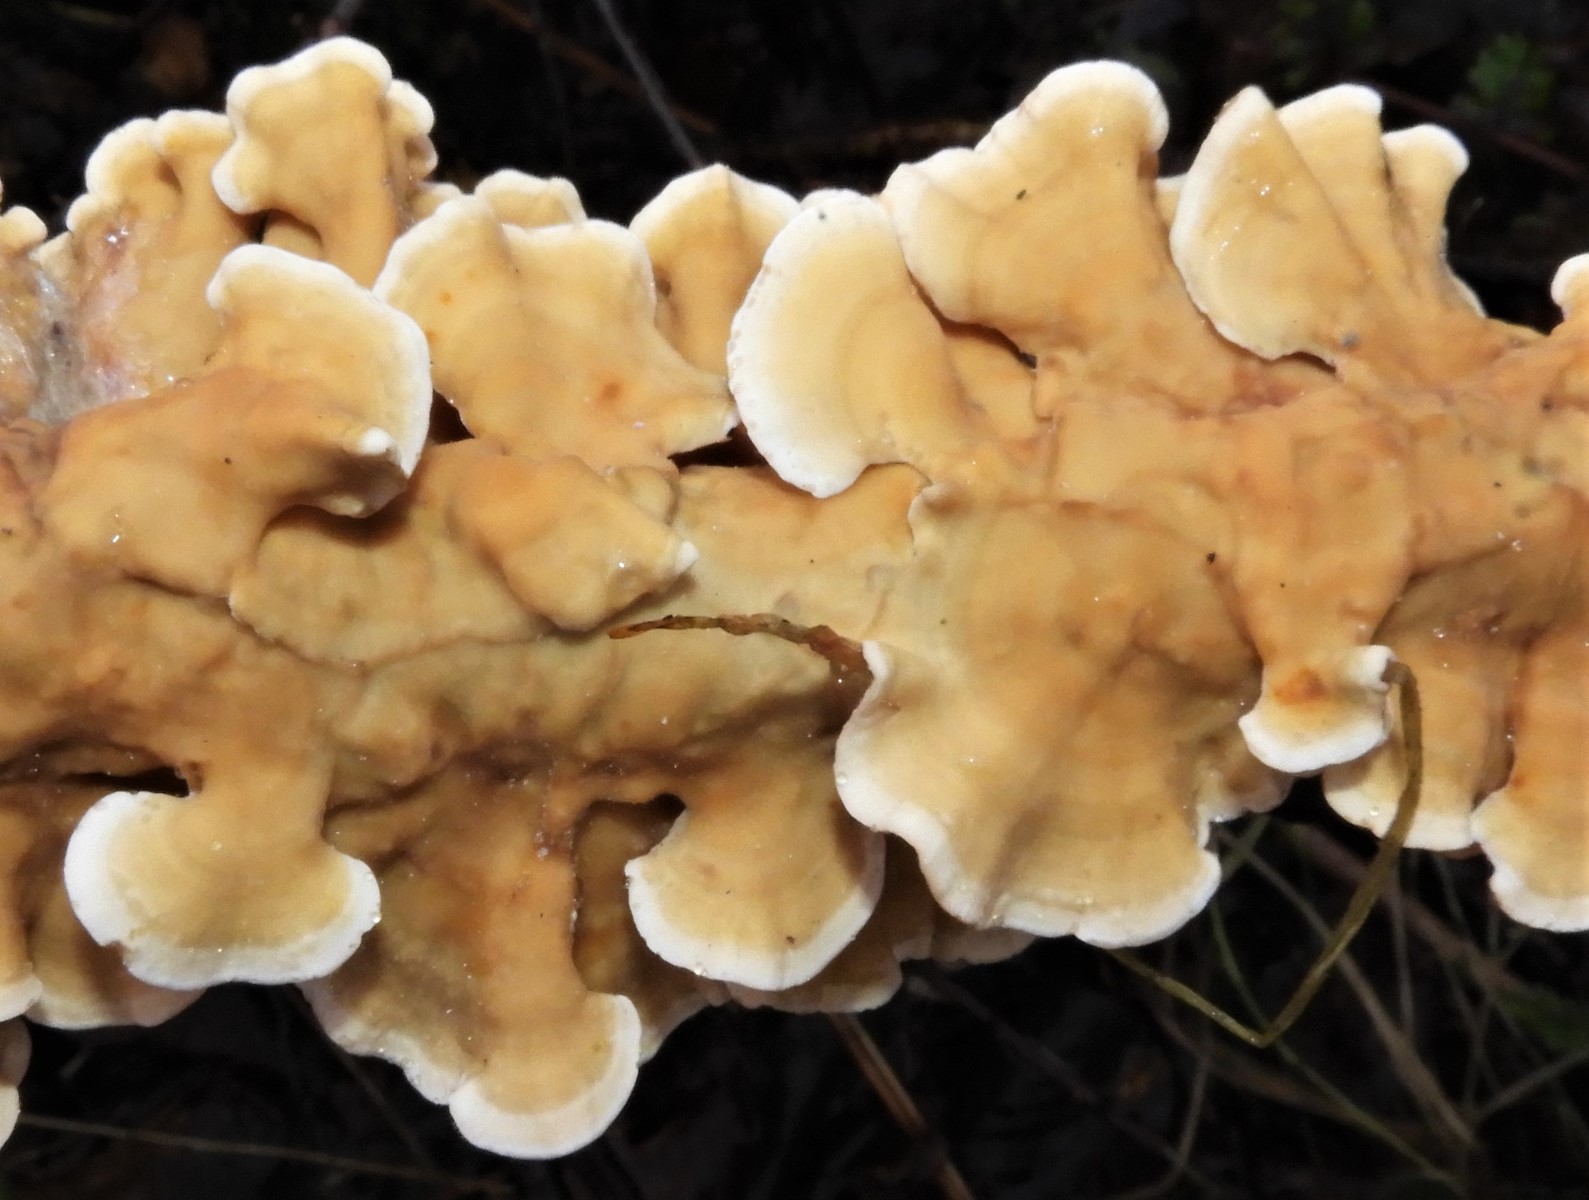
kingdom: Fungi
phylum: Basidiomycota
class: Agaricomycetes
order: Russulales
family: Stereaceae
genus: Stereum
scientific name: Stereum hirsutum
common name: håret lædersvamp
